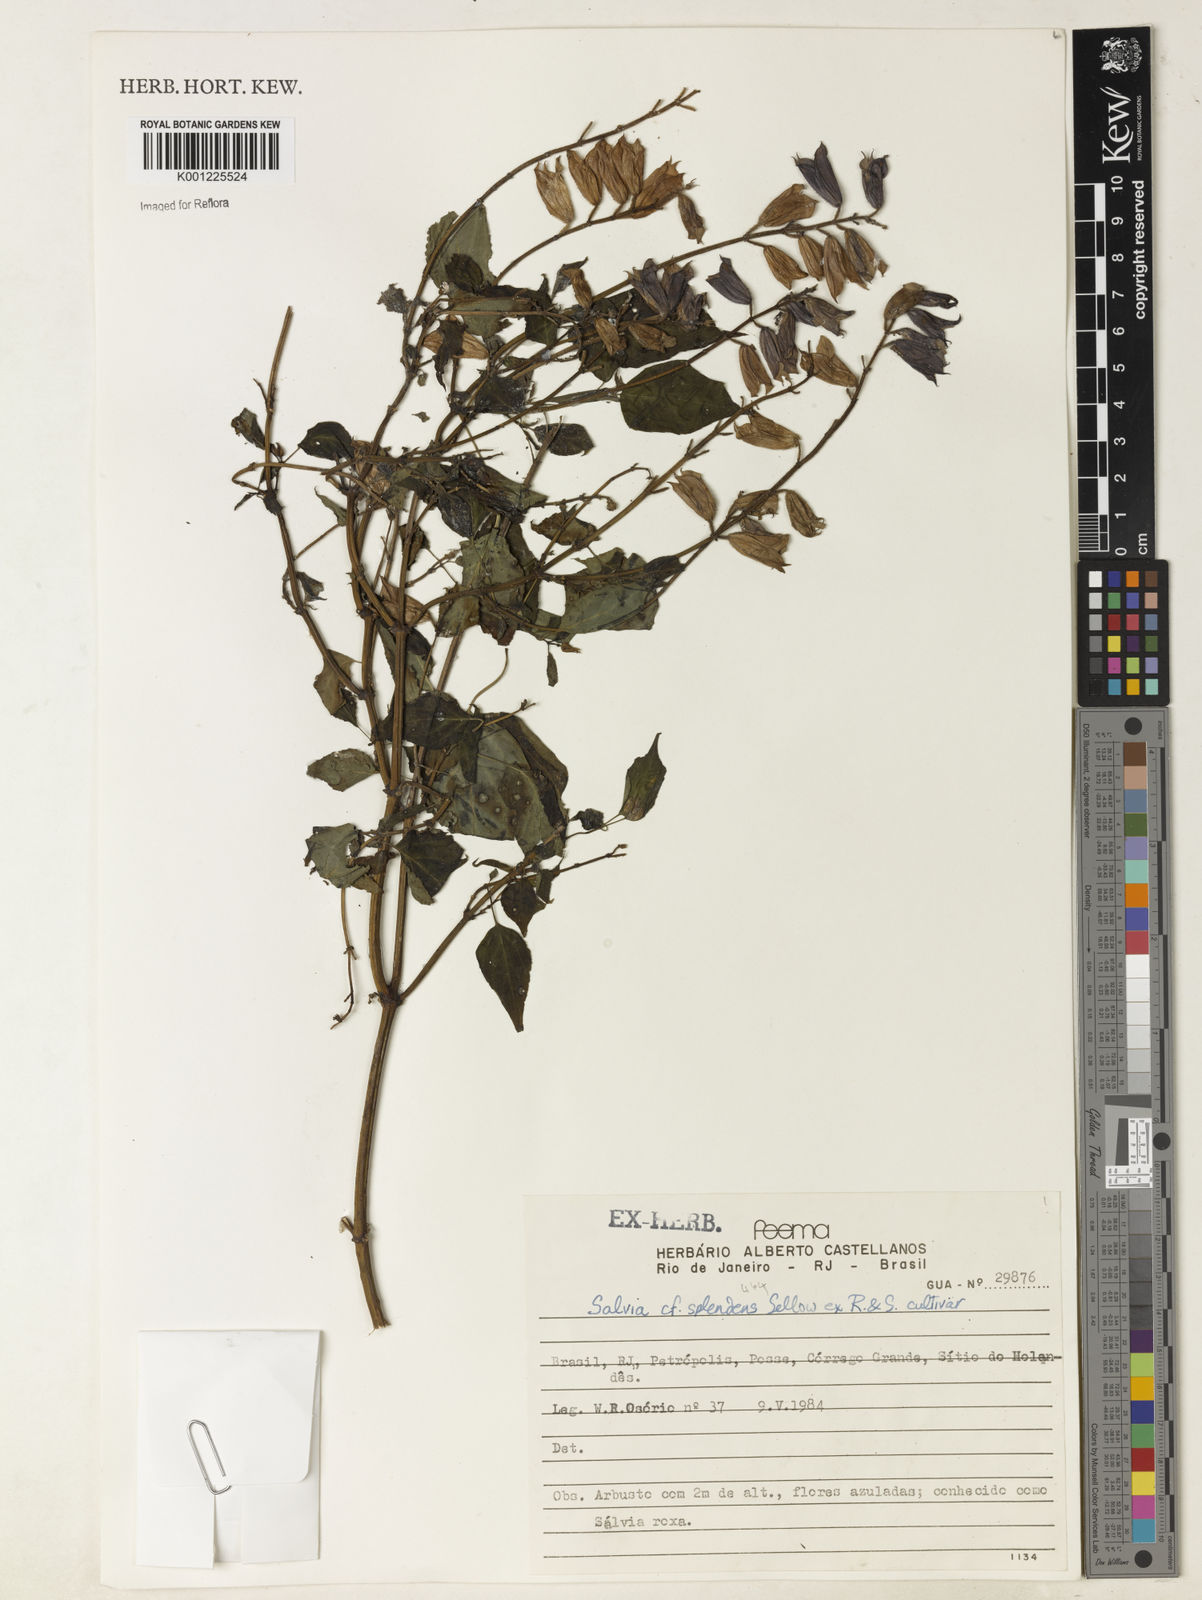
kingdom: Plantae
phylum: Tracheophyta
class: Magnoliopsida
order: Lamiales
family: Lamiaceae
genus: Salvia
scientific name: Salvia
